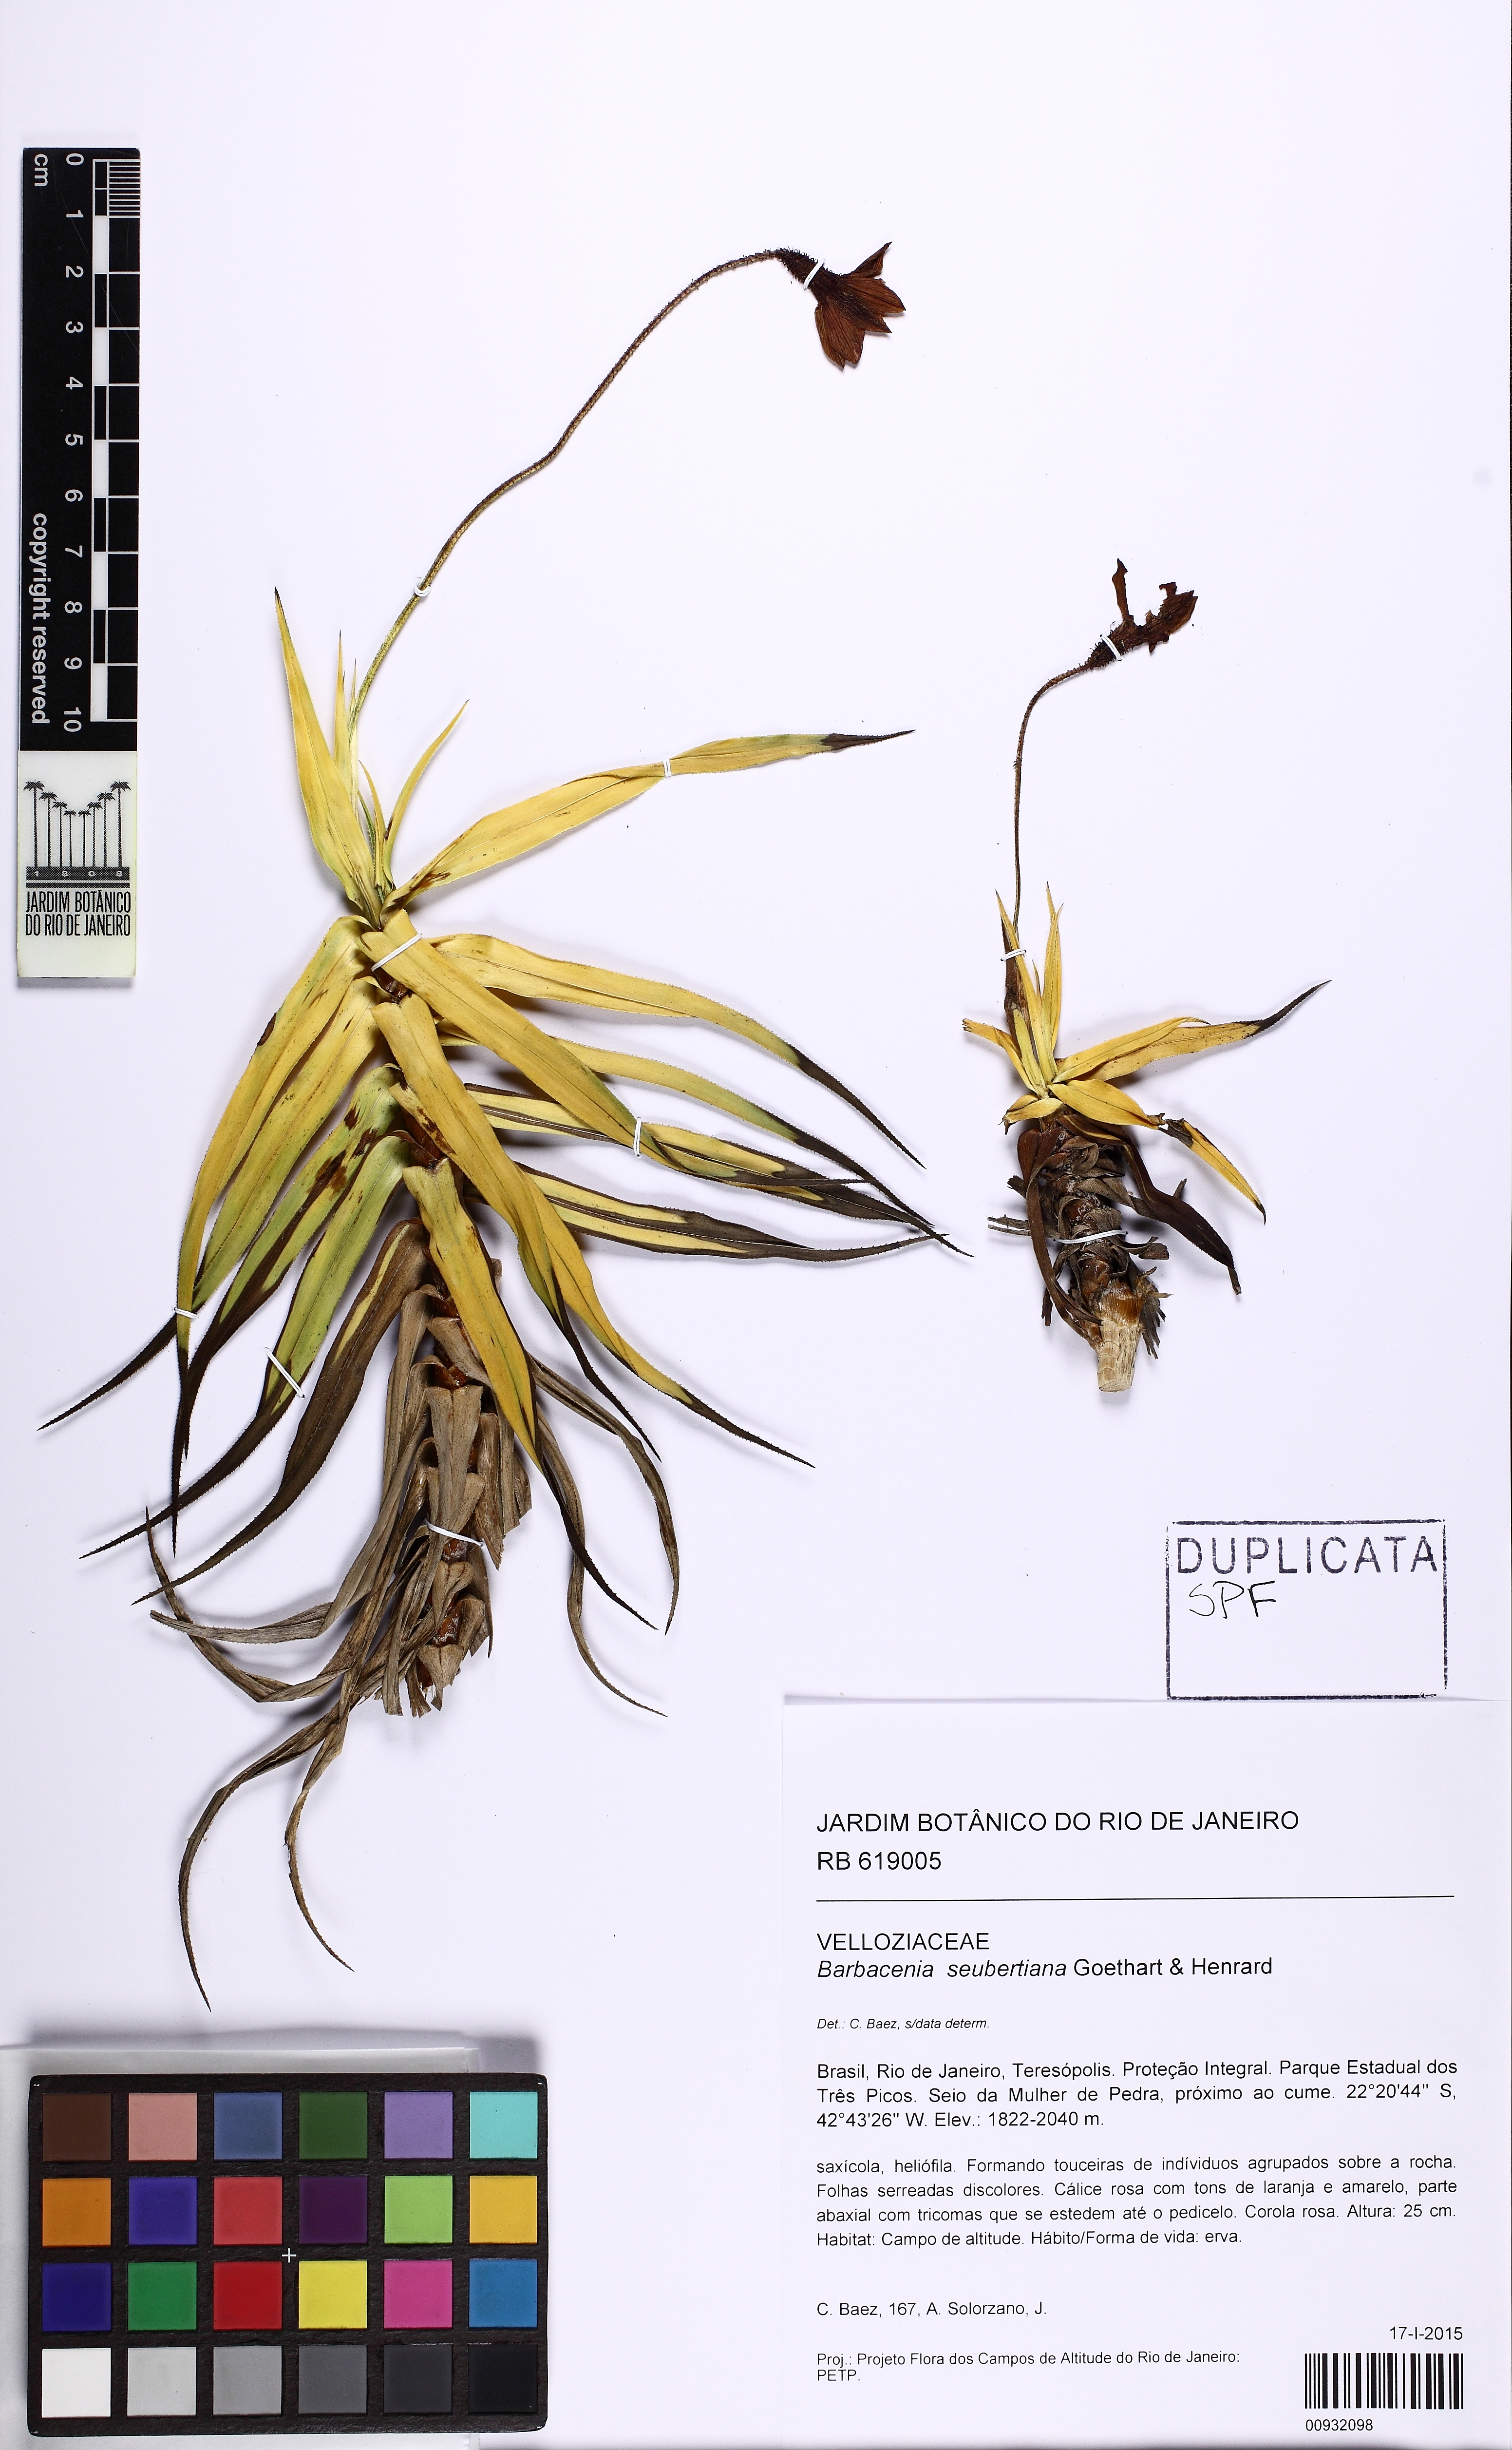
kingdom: Plantae
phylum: Tracheophyta
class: Liliopsida
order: Pandanales
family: Velloziaceae
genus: Barbacenia
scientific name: Barbacenia seubertiana
